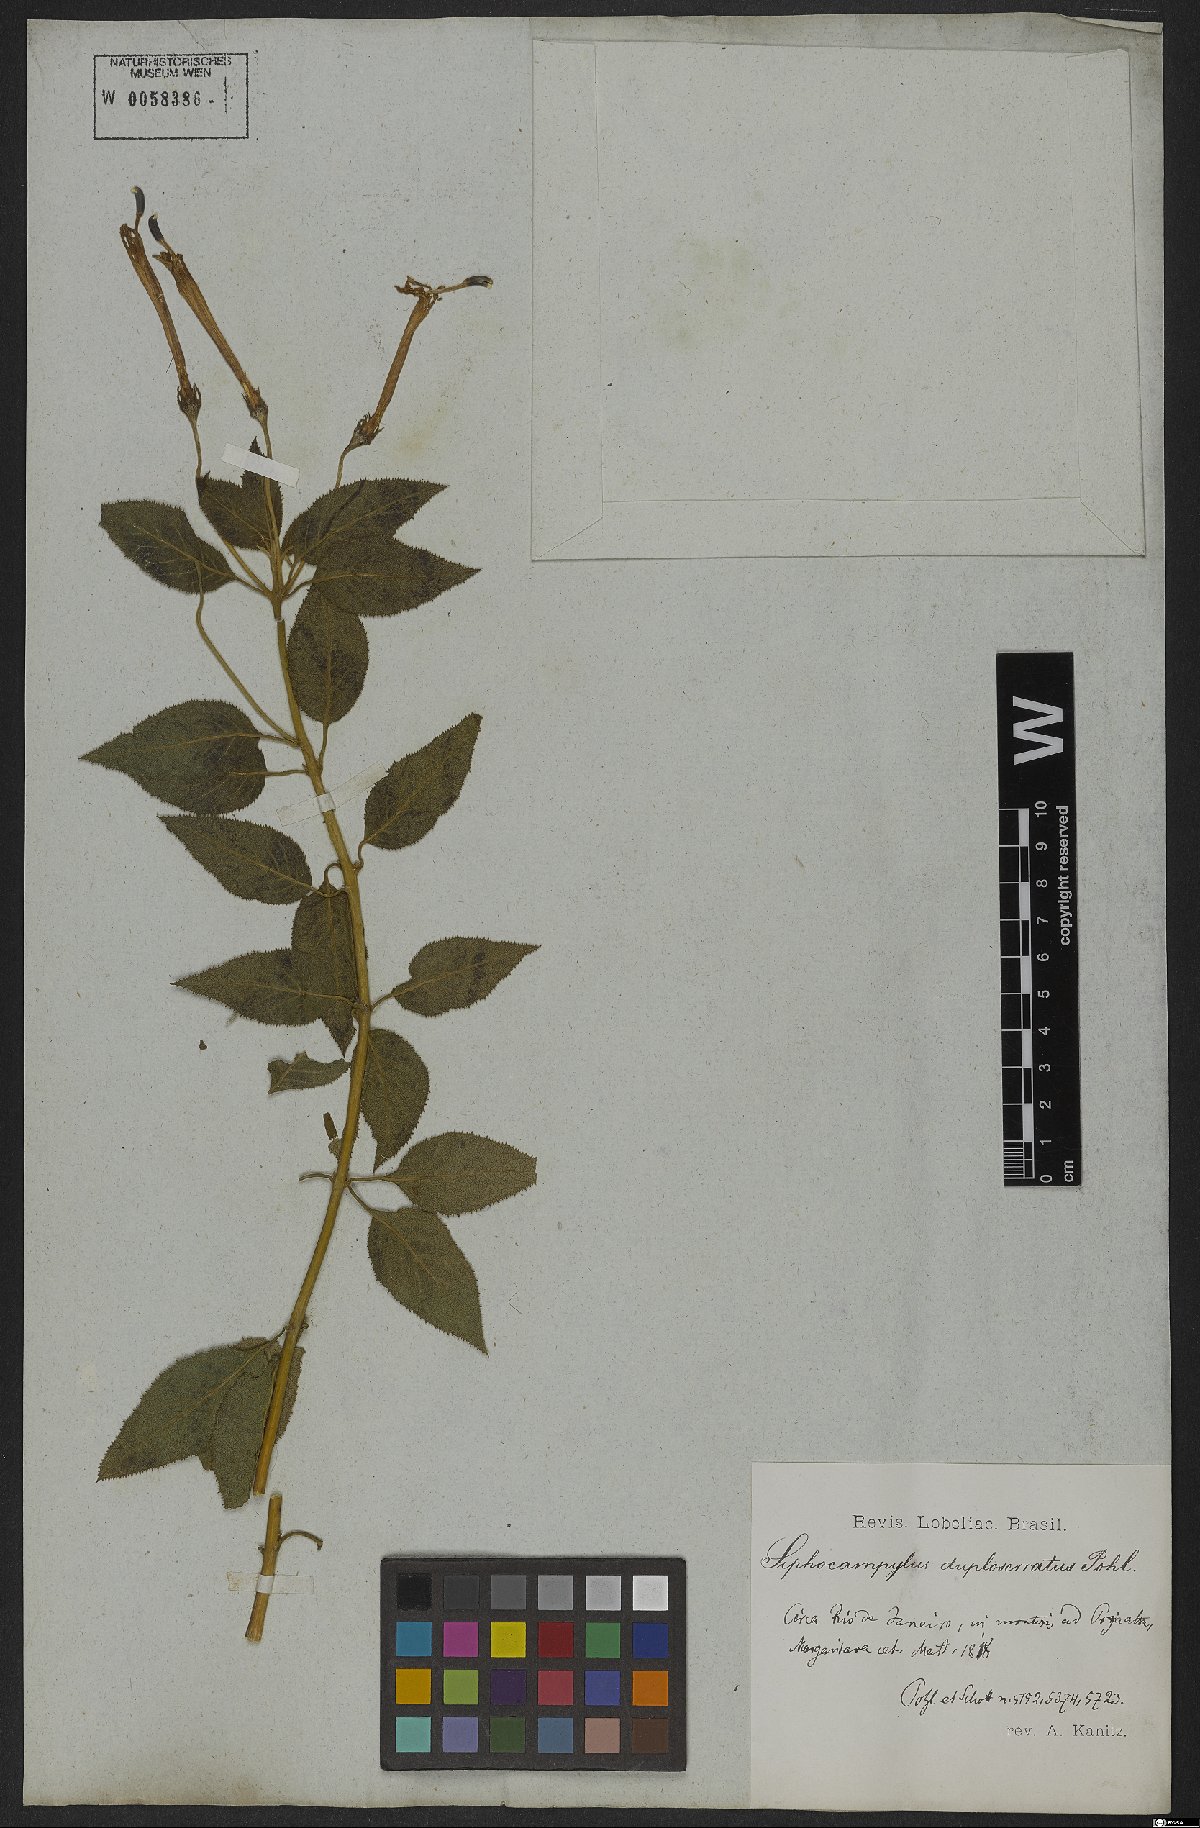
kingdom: Plantae
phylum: Tracheophyta
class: Magnoliopsida
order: Asterales
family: Campanulaceae
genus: Siphocampylus
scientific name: Siphocampylus duploserratus
